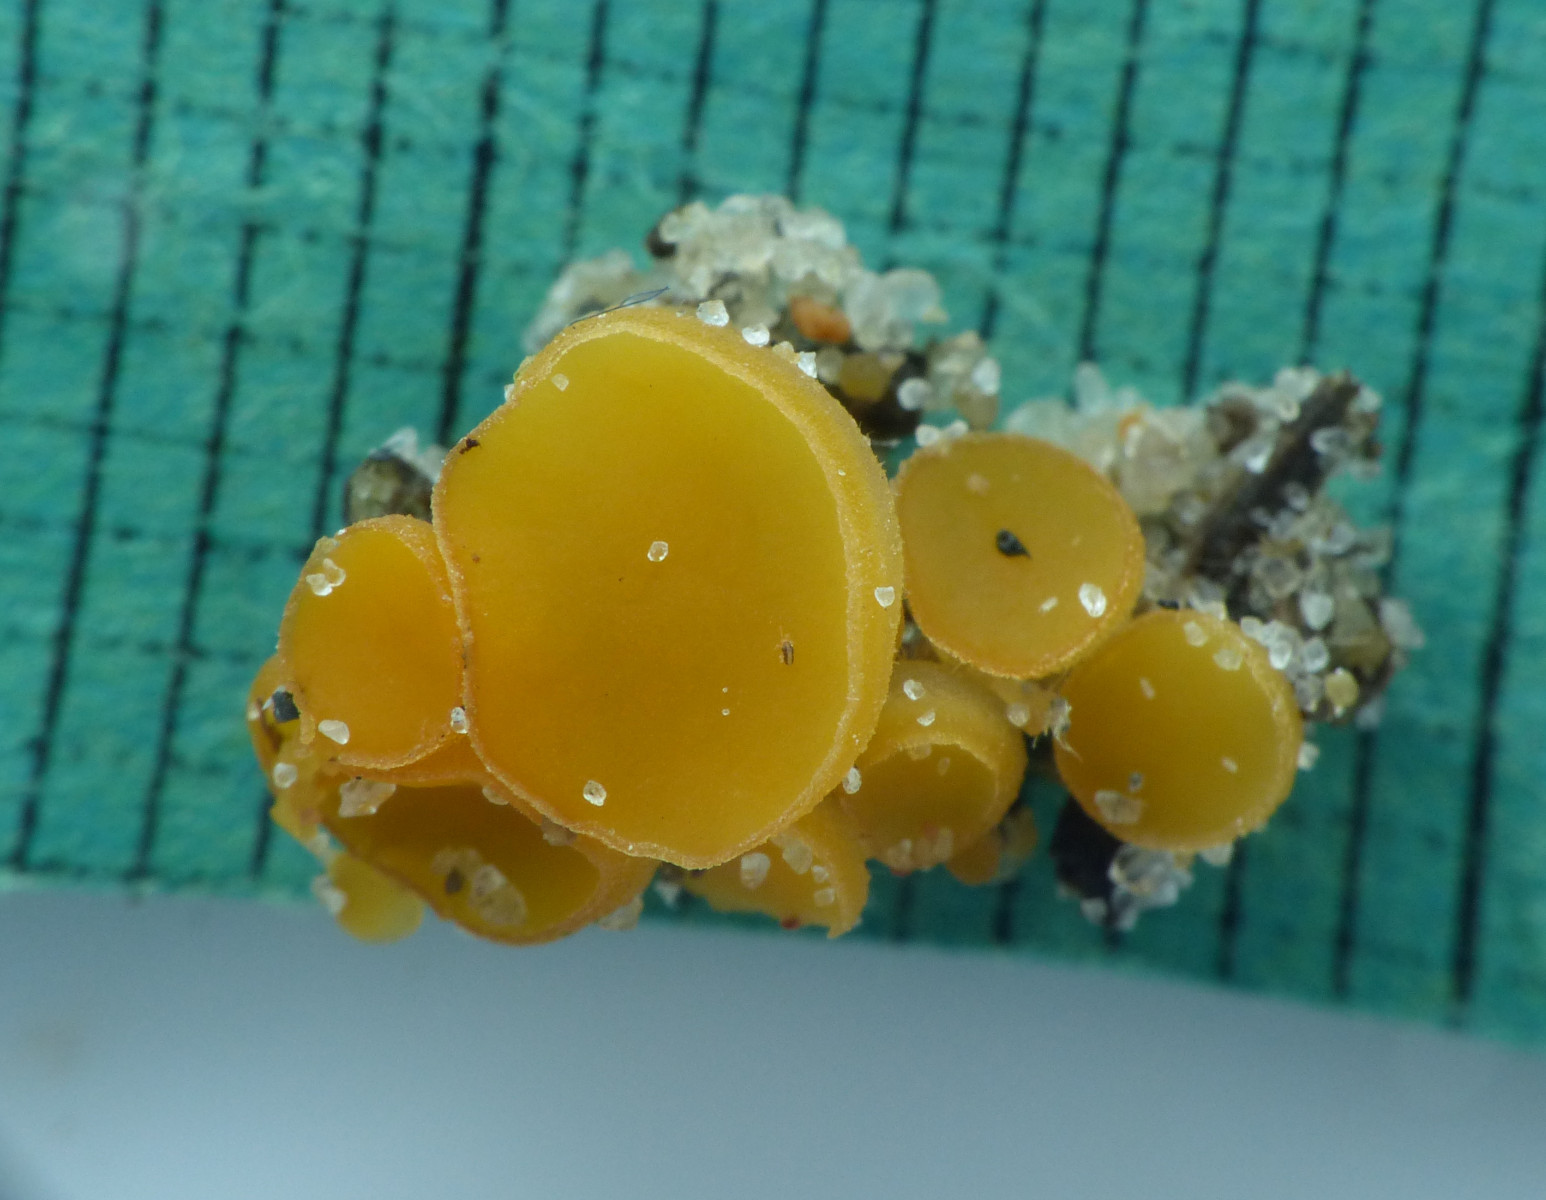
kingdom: Fungi
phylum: Ascomycota
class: Pezizomycetes
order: Pezizales
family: Pyronemataceae
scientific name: Pyronemataceae
